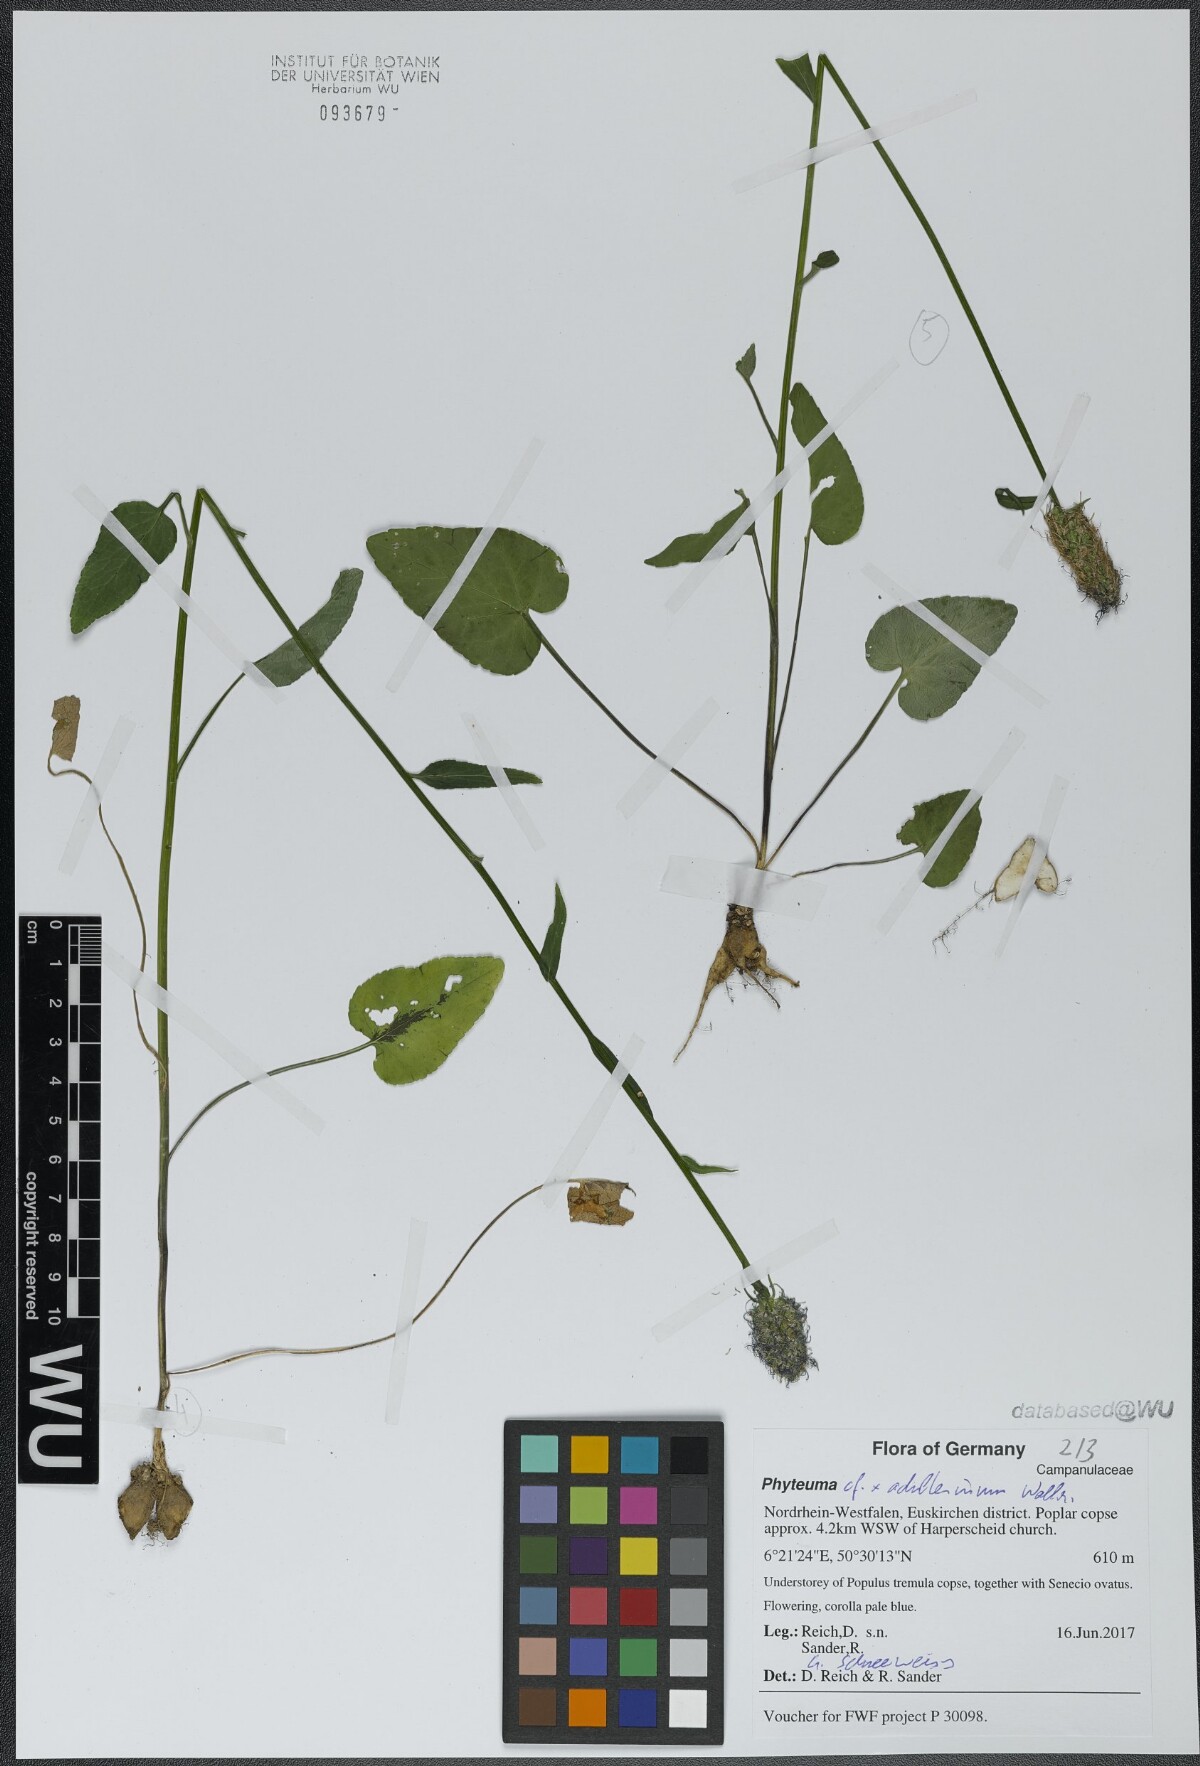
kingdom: Plantae
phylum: Tracheophyta
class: Magnoliopsida
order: Asterales
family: Campanulaceae
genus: Phyteuma
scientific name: Phyteuma
